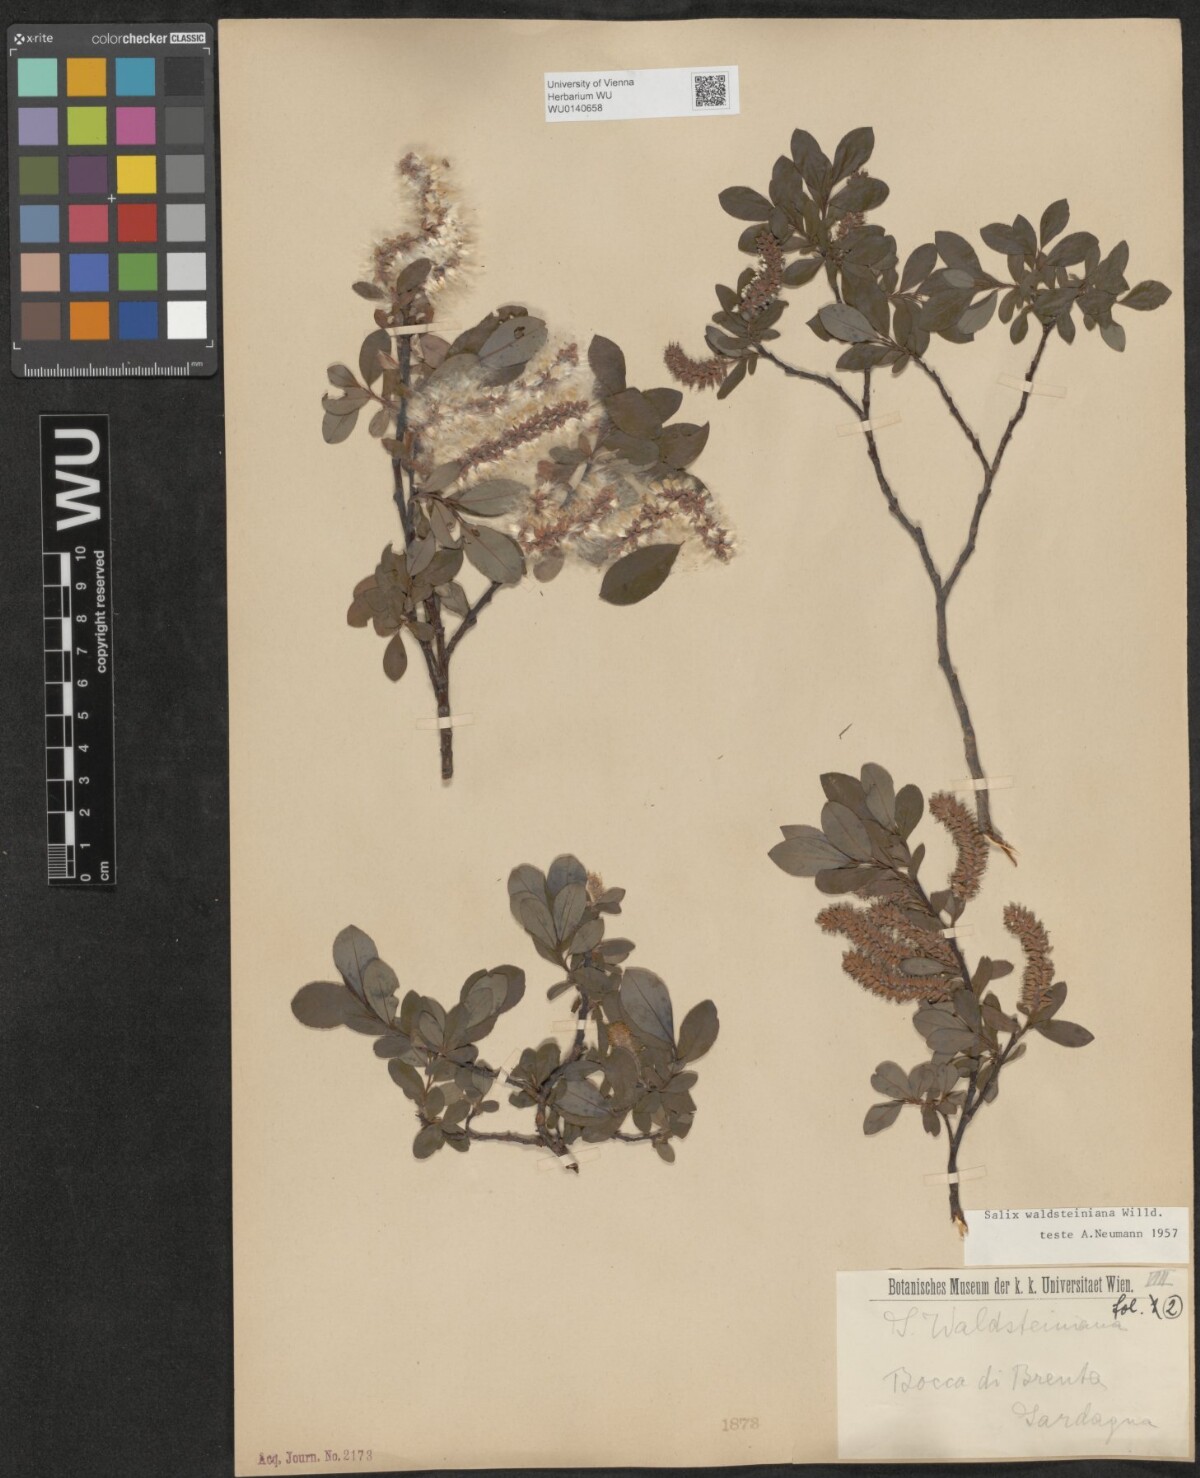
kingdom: Plantae
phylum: Tracheophyta
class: Magnoliopsida
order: Malpighiales
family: Salicaceae
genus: Salix
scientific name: Salix waldsteiniana
